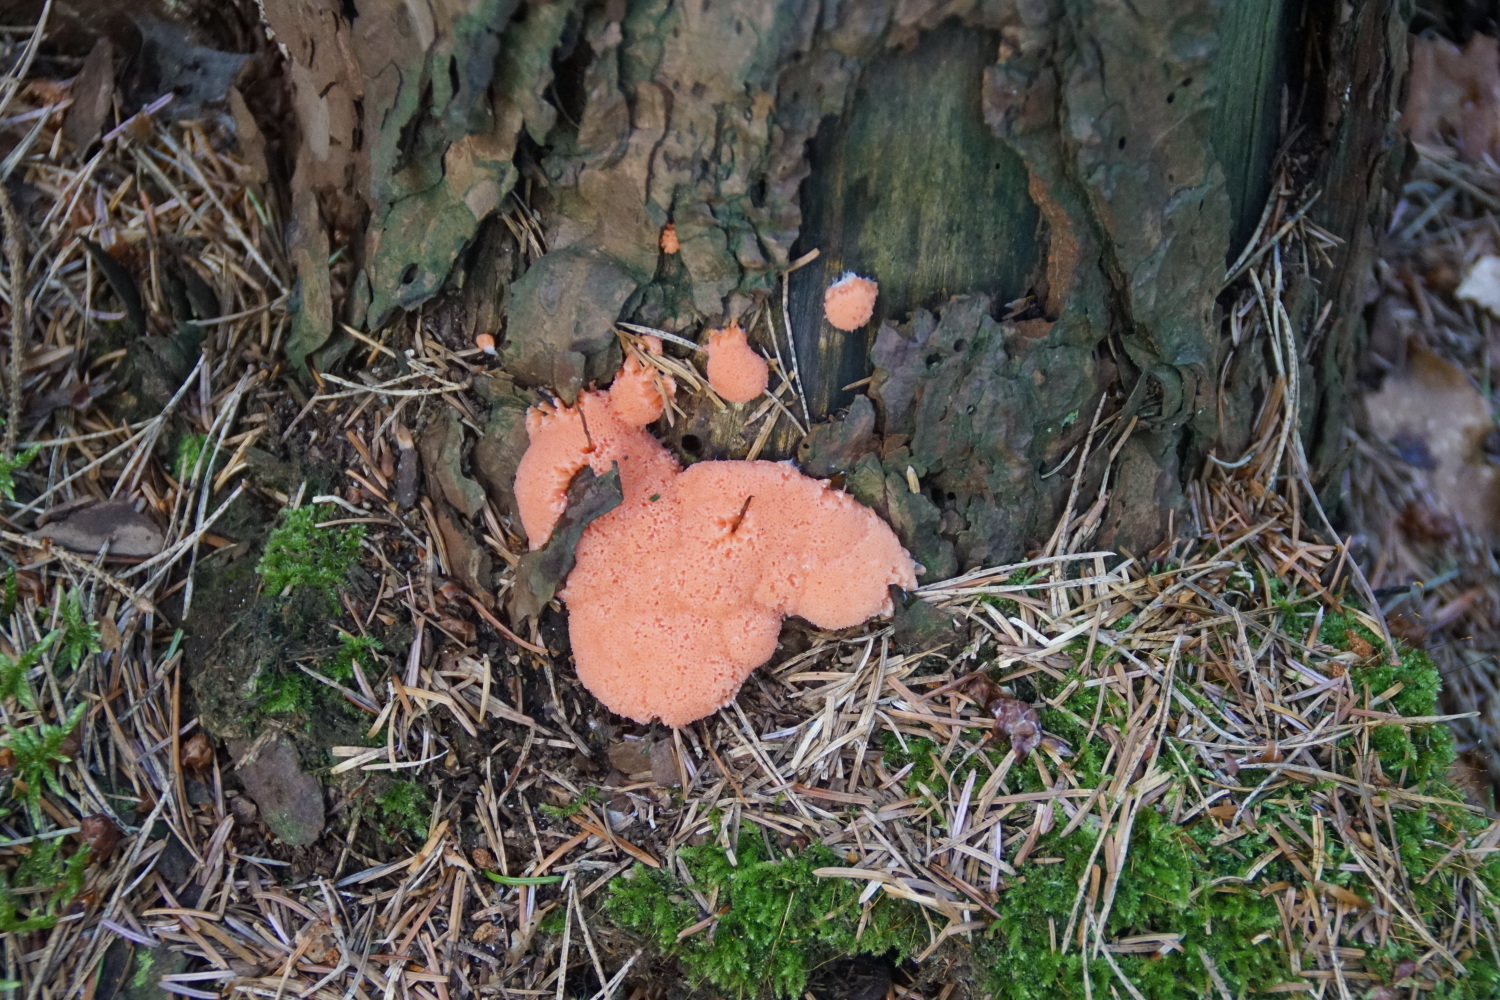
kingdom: Protozoa
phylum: Mycetozoa
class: Myxomycetes
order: Cribrariales
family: Tubiferaceae
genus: Tubifera
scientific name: Tubifera ferruginosa
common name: kanel-støvrør
